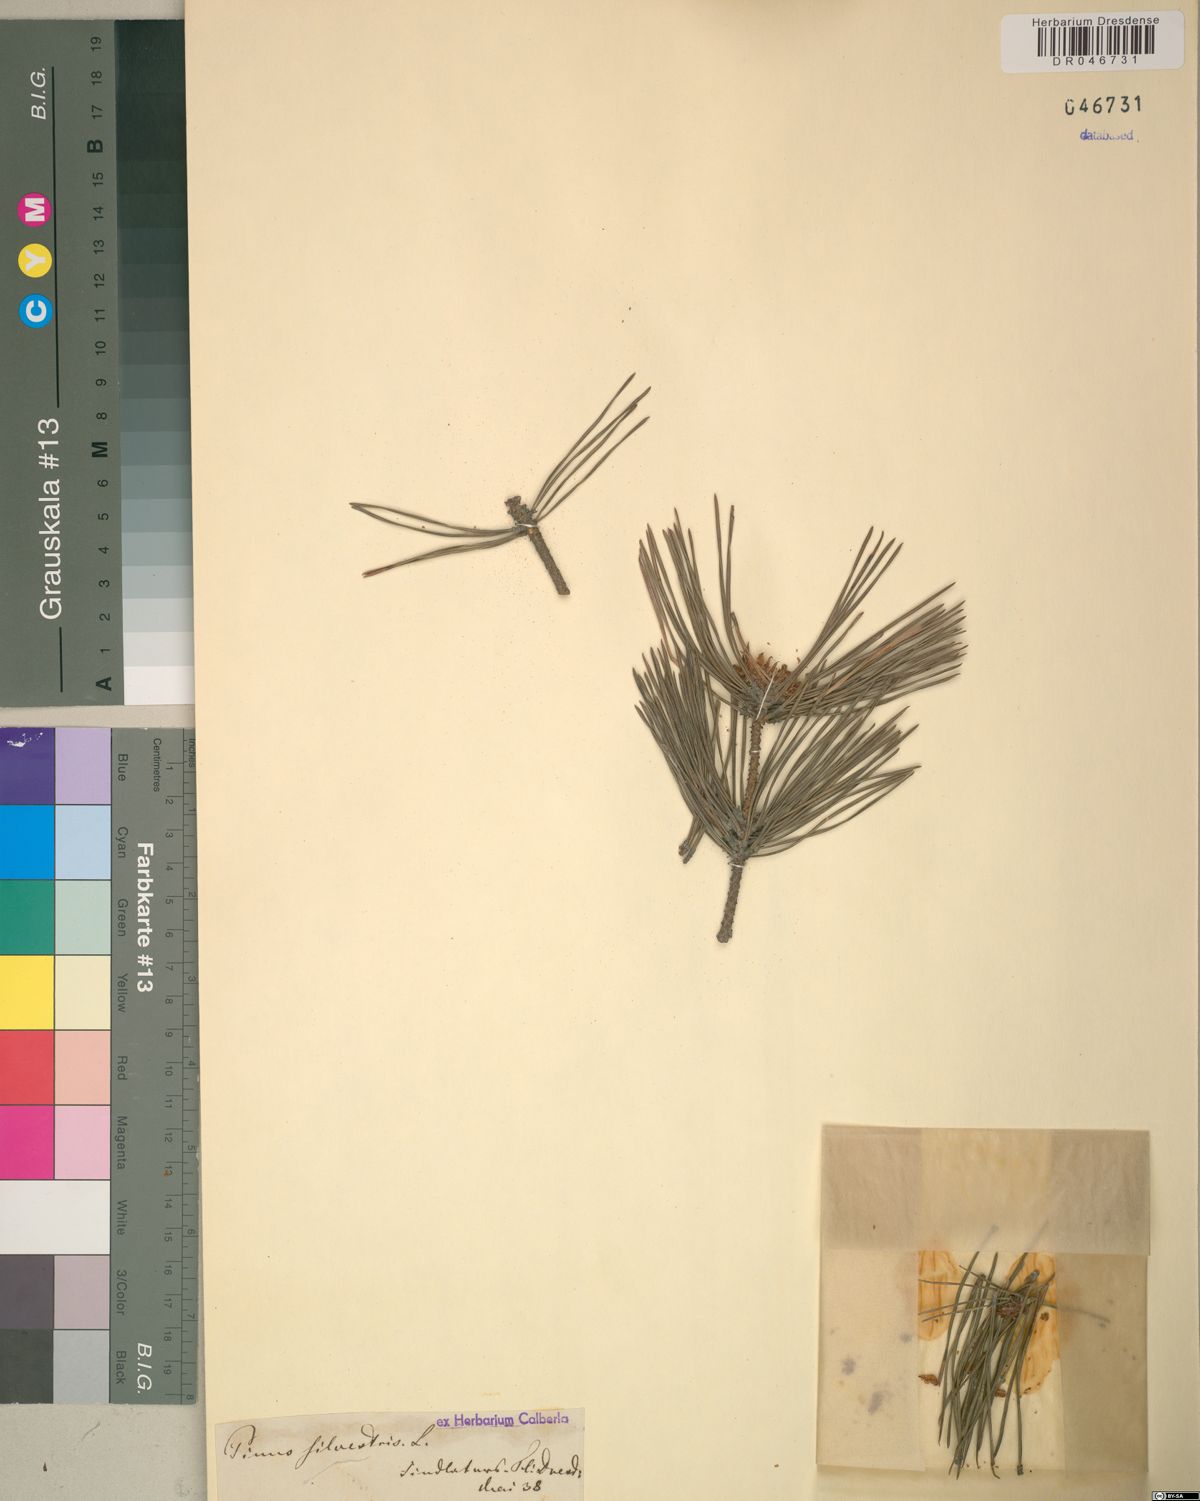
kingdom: Plantae
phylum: Tracheophyta
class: Pinopsida
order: Pinales
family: Pinaceae
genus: Pinus
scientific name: Pinus sylvestris
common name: Scots pine
